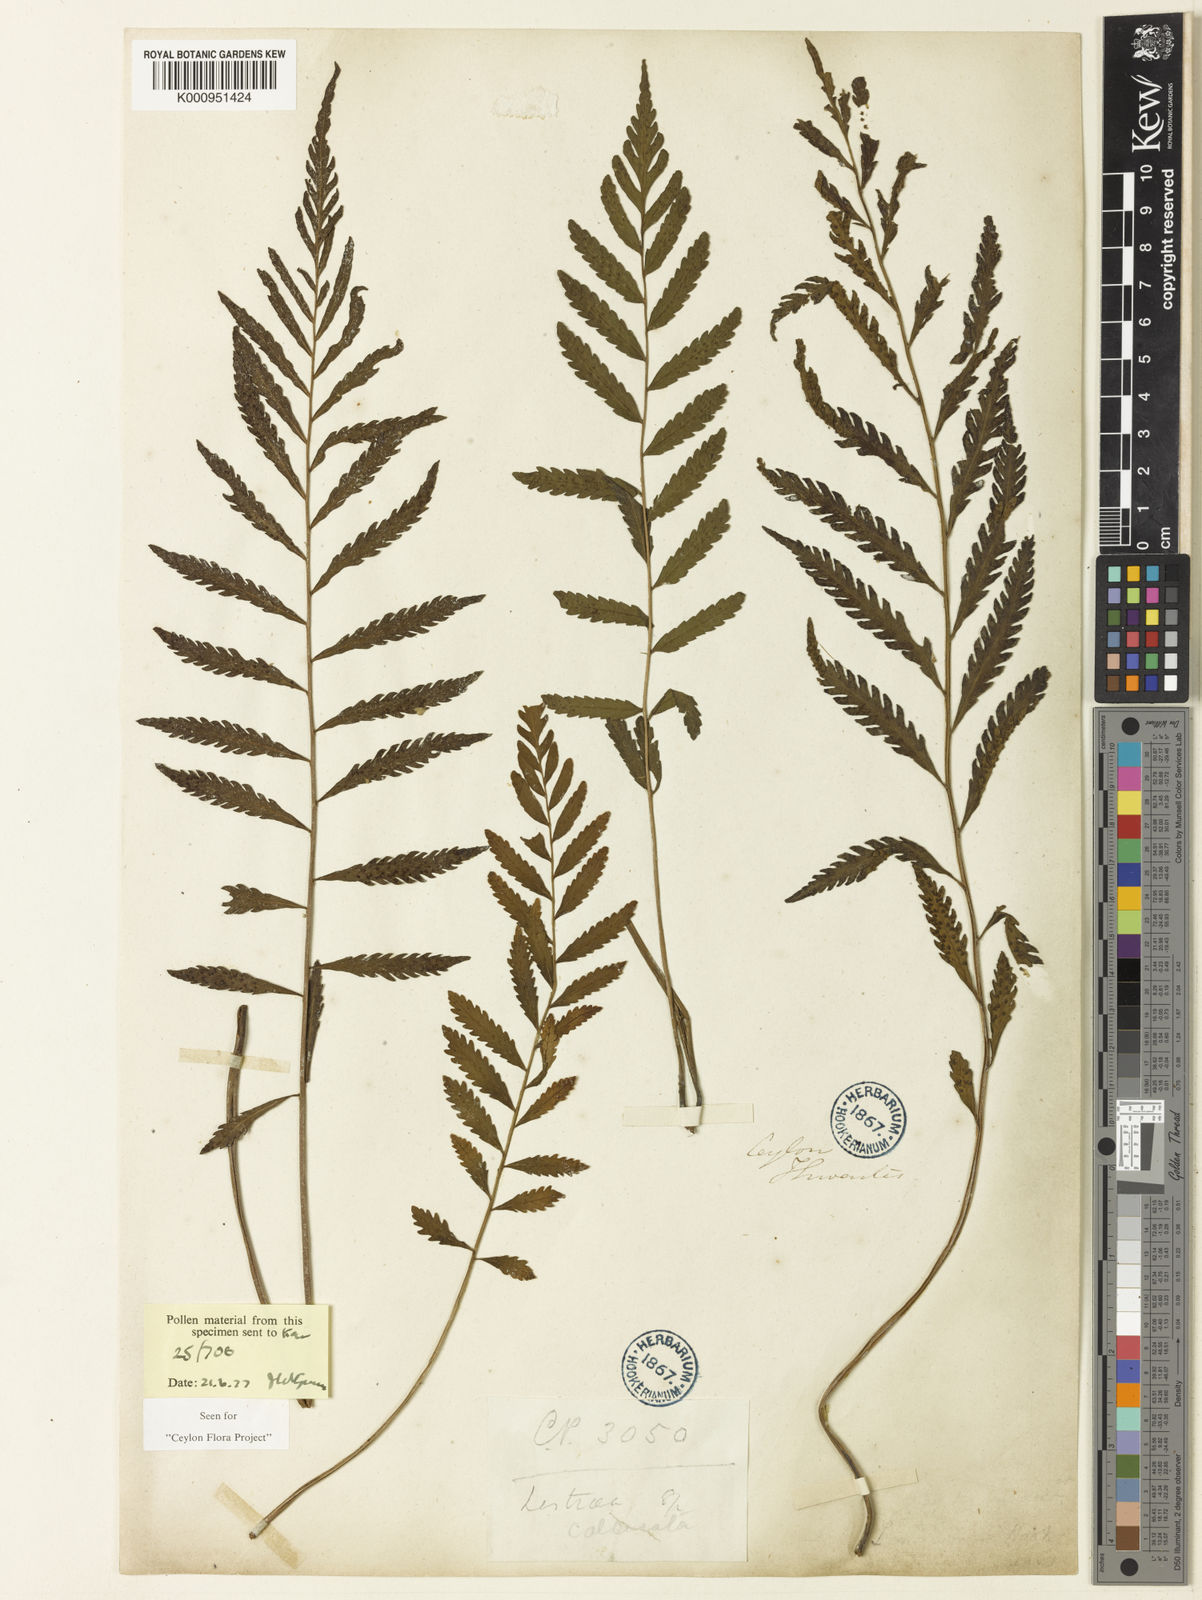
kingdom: Plantae
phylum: Tracheophyta
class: Polypodiopsida
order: Polypodiales
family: Thelypteridaceae
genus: Trigonospora
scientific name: Trigonospora zeylanica
